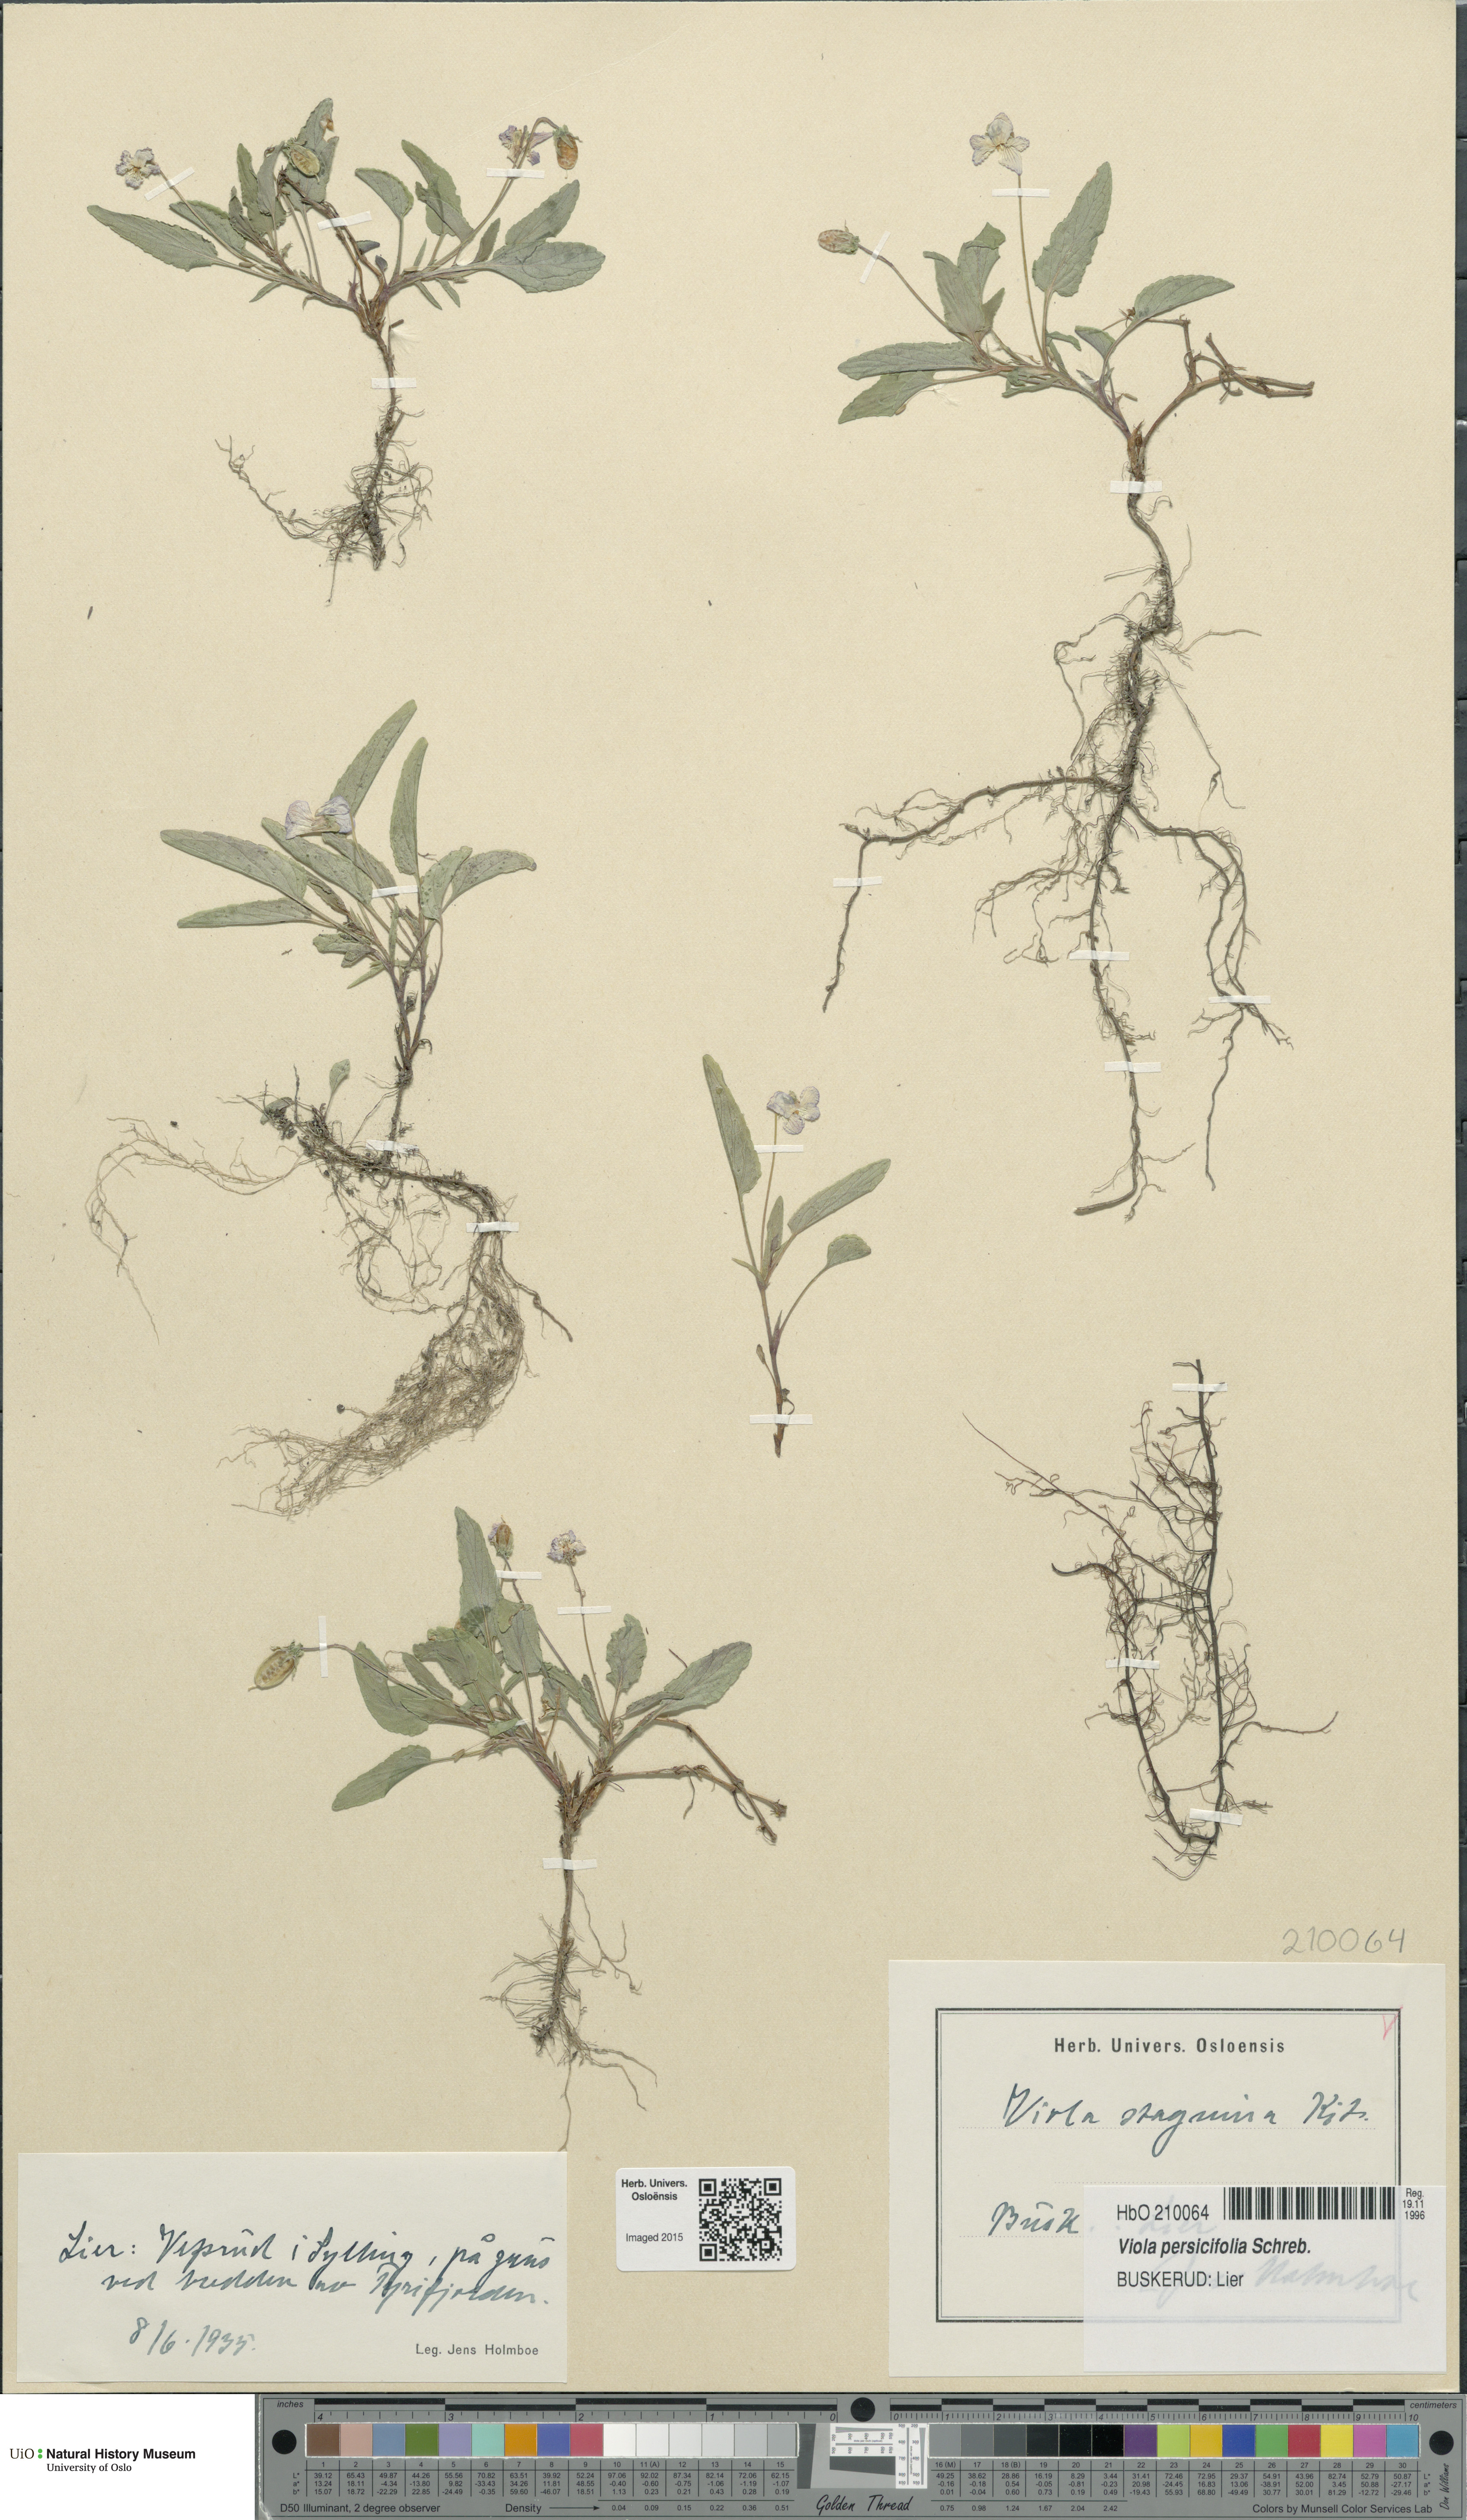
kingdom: Plantae
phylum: Tracheophyta
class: Magnoliopsida
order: Malpighiales
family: Violaceae
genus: Viola
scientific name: Viola stagnina
